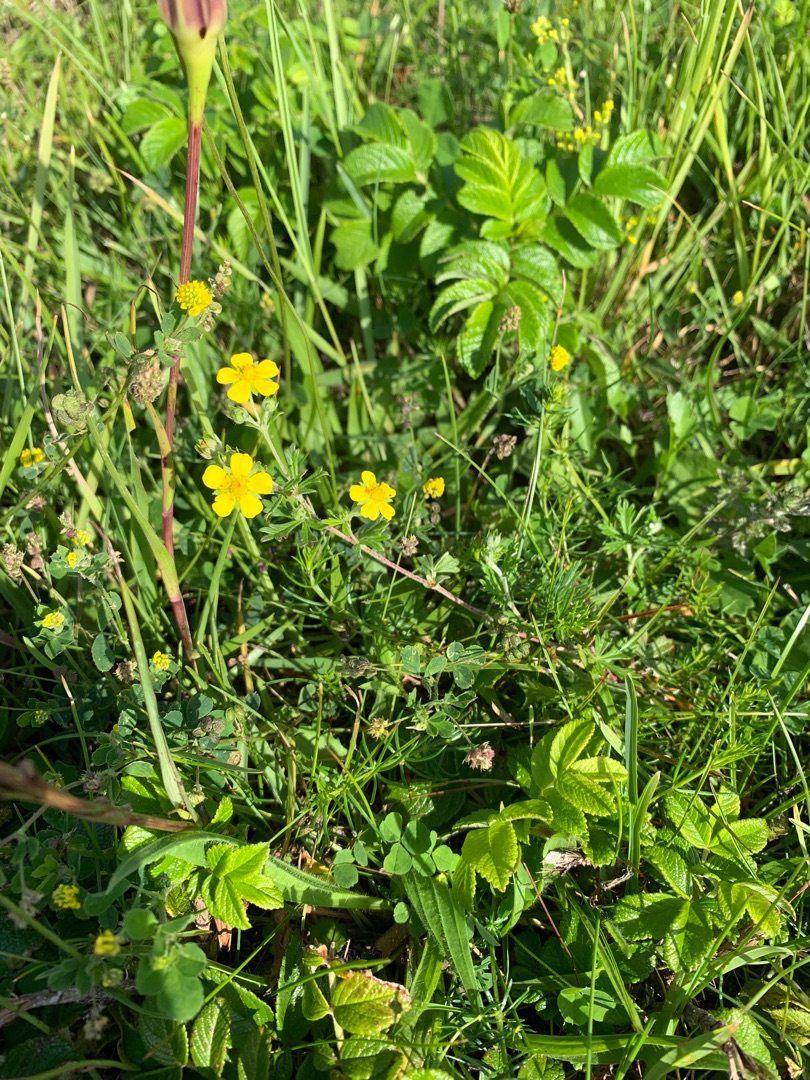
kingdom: Plantae
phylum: Tracheophyta
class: Magnoliopsida
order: Rosales
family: Rosaceae
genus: Potentilla
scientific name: Potentilla argentea
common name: Sølv-potentil
